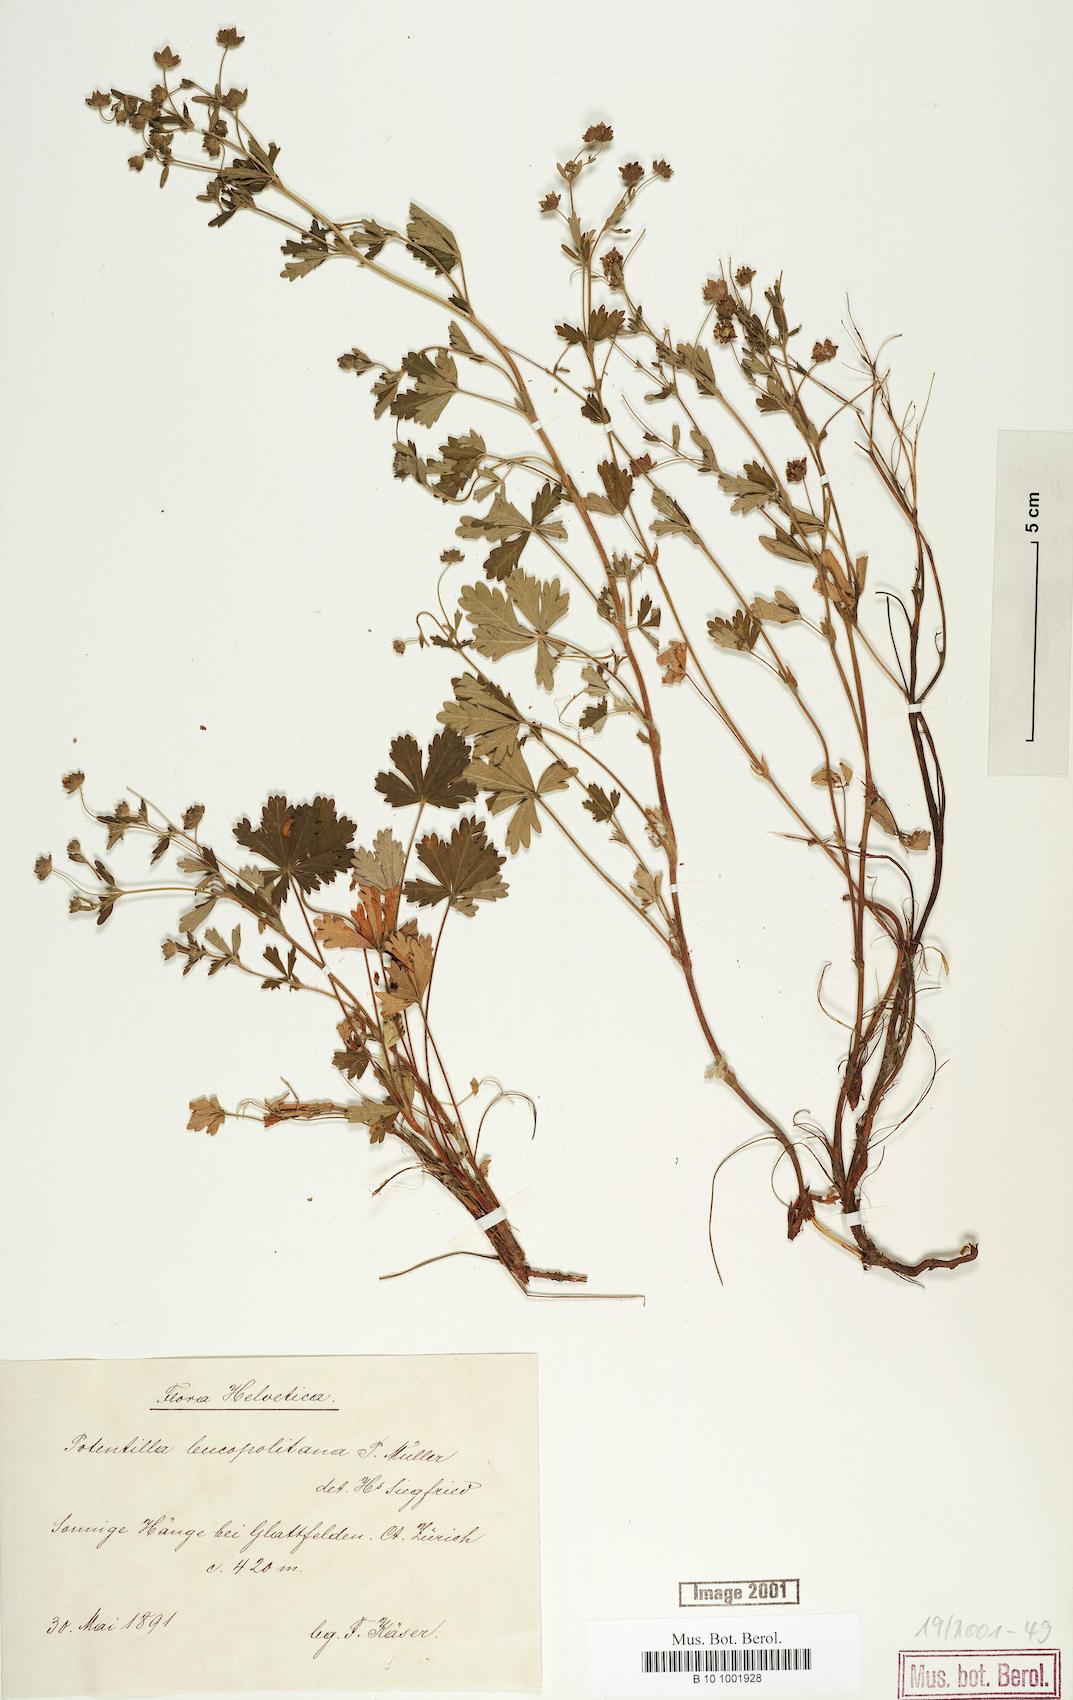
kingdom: Plantae
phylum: Tracheophyta
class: Magnoliopsida
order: Rosales
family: Rosaceae
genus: Potentilla
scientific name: Potentilla leucopolitana
